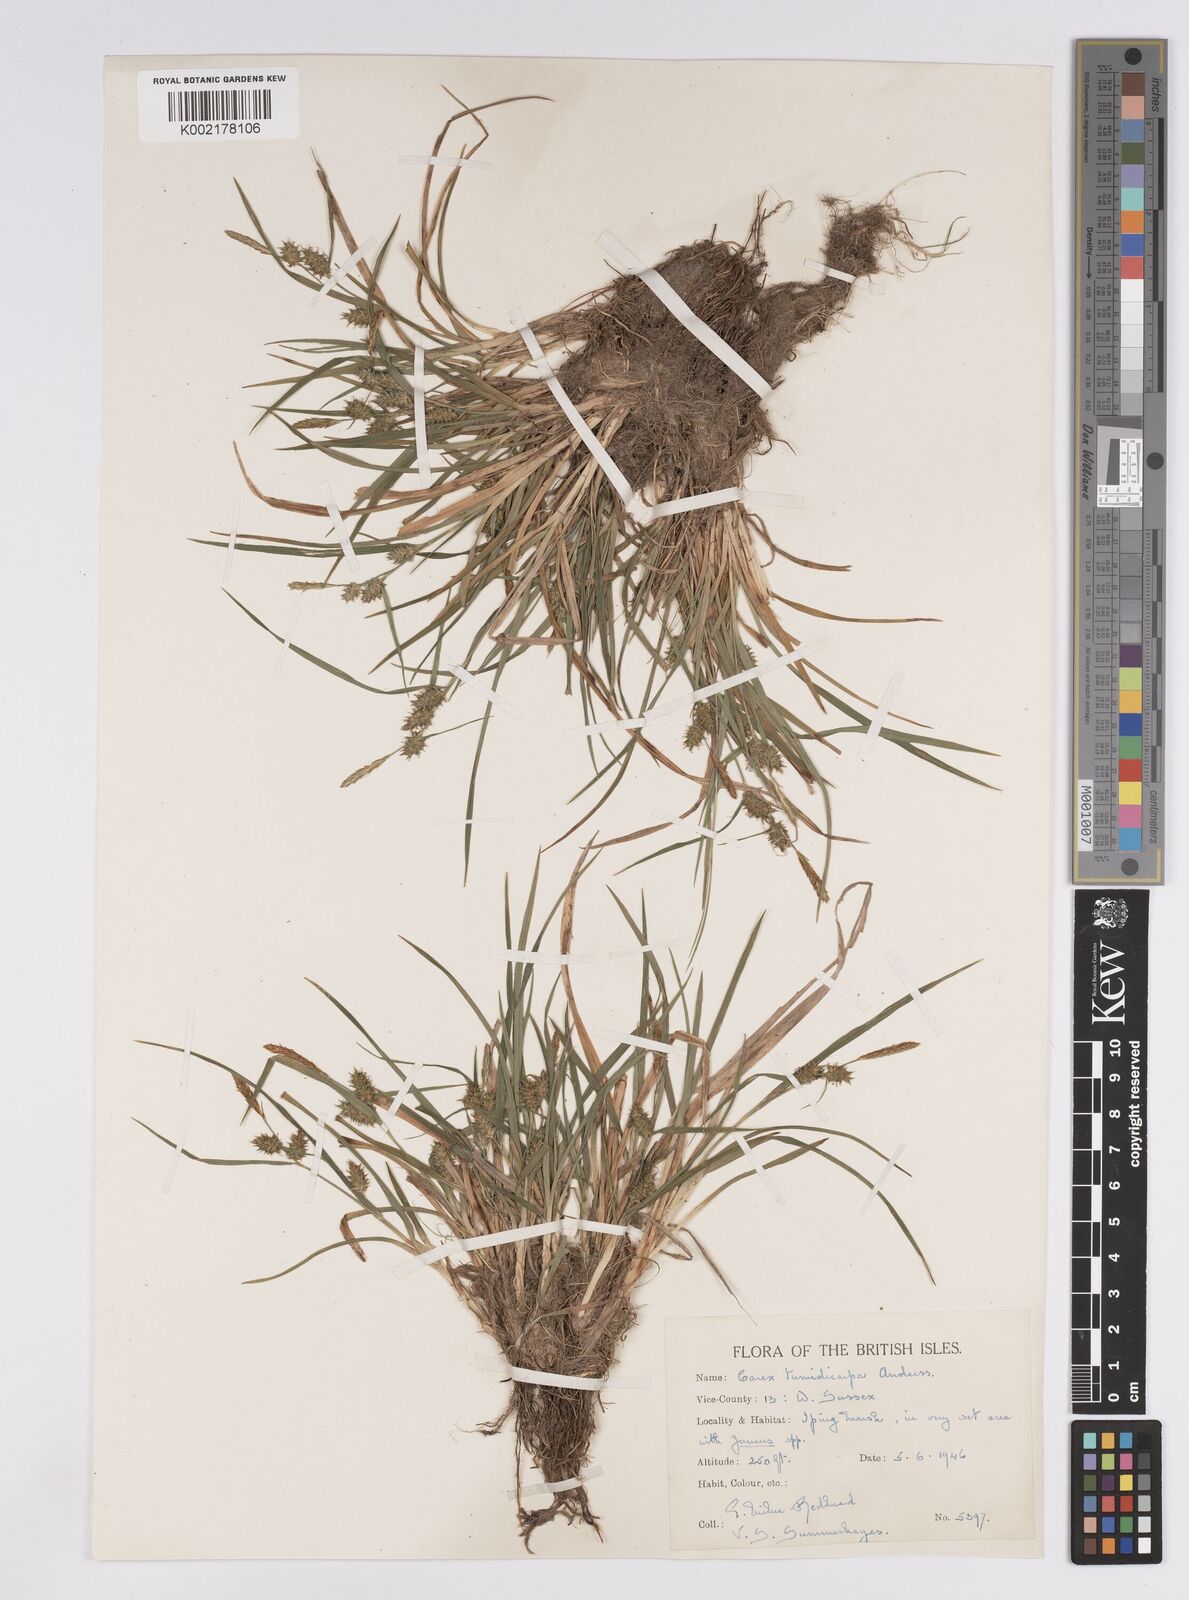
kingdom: Plantae
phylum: Tracheophyta
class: Liliopsida
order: Poales
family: Cyperaceae
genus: Carex
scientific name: Carex demissa
